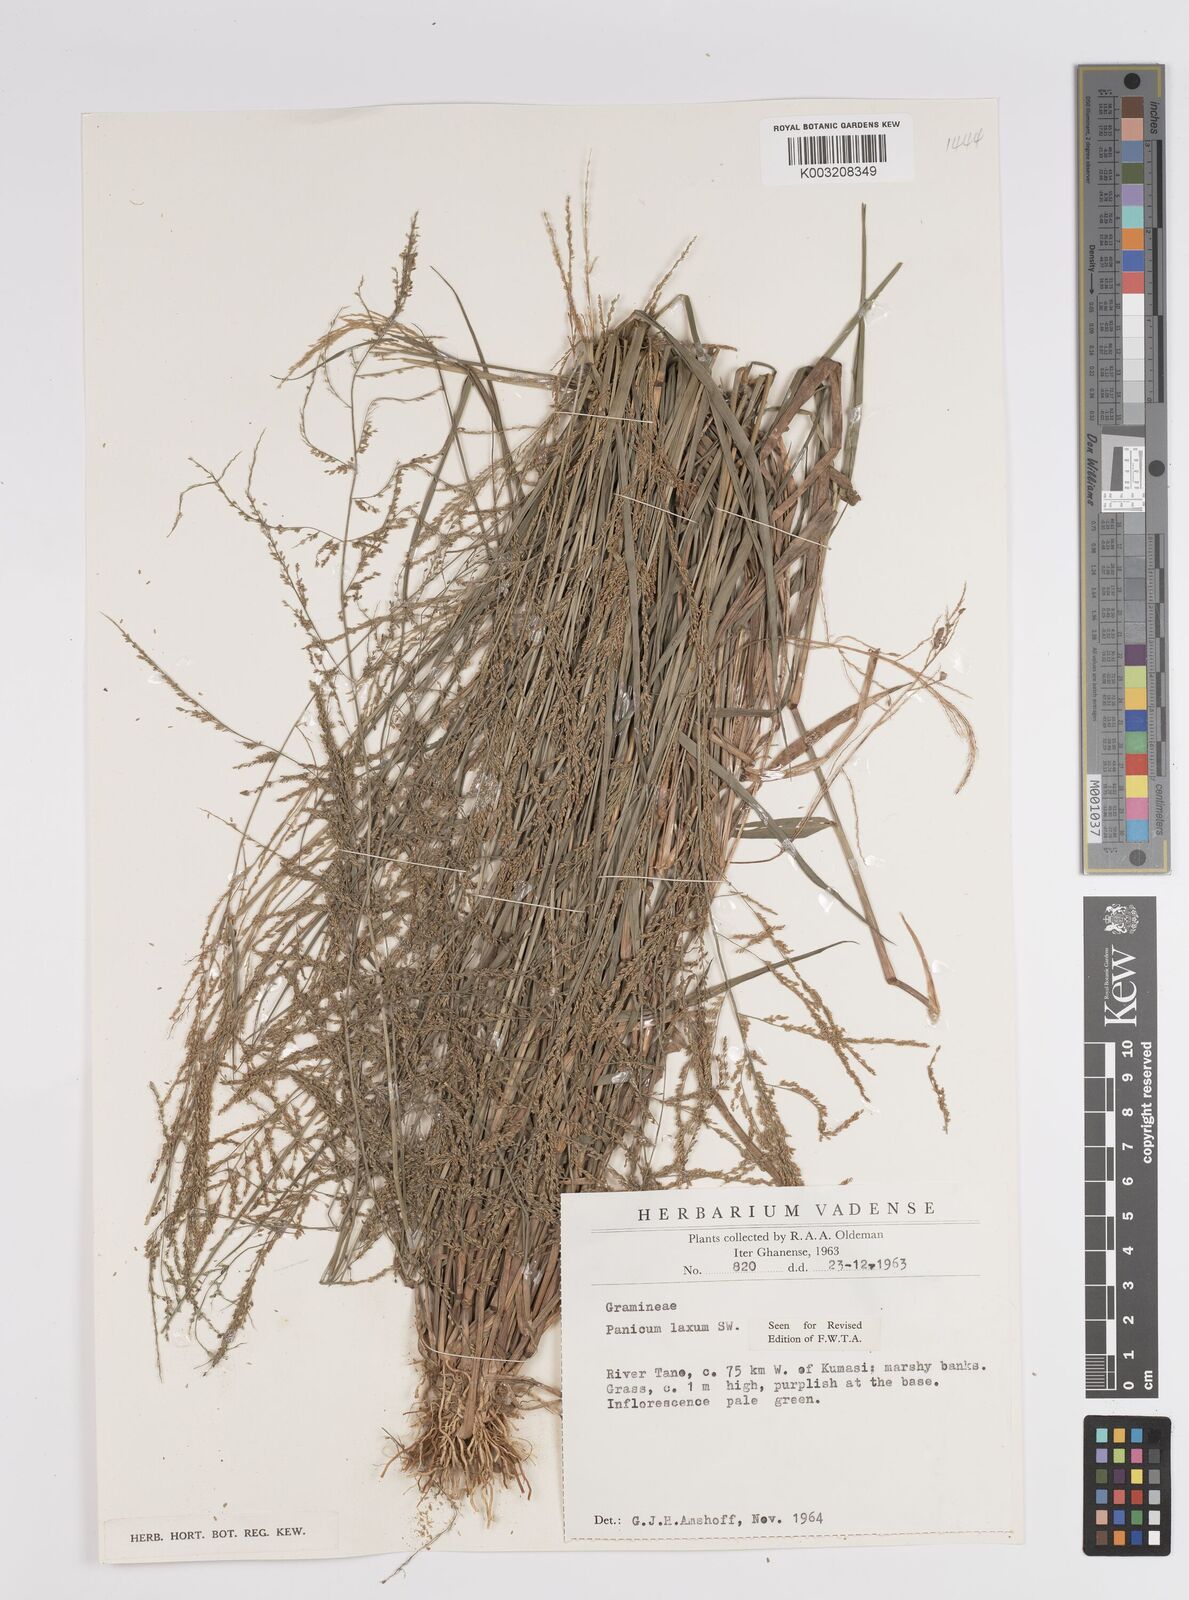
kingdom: Plantae
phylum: Tracheophyta
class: Liliopsida
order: Poales
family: Poaceae
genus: Steinchisma
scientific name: Steinchisma laxum
